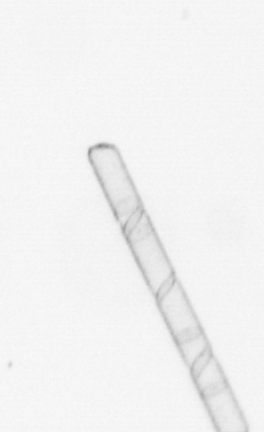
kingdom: Chromista
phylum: Ochrophyta
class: Bacillariophyceae
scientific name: Bacillariophyceae
